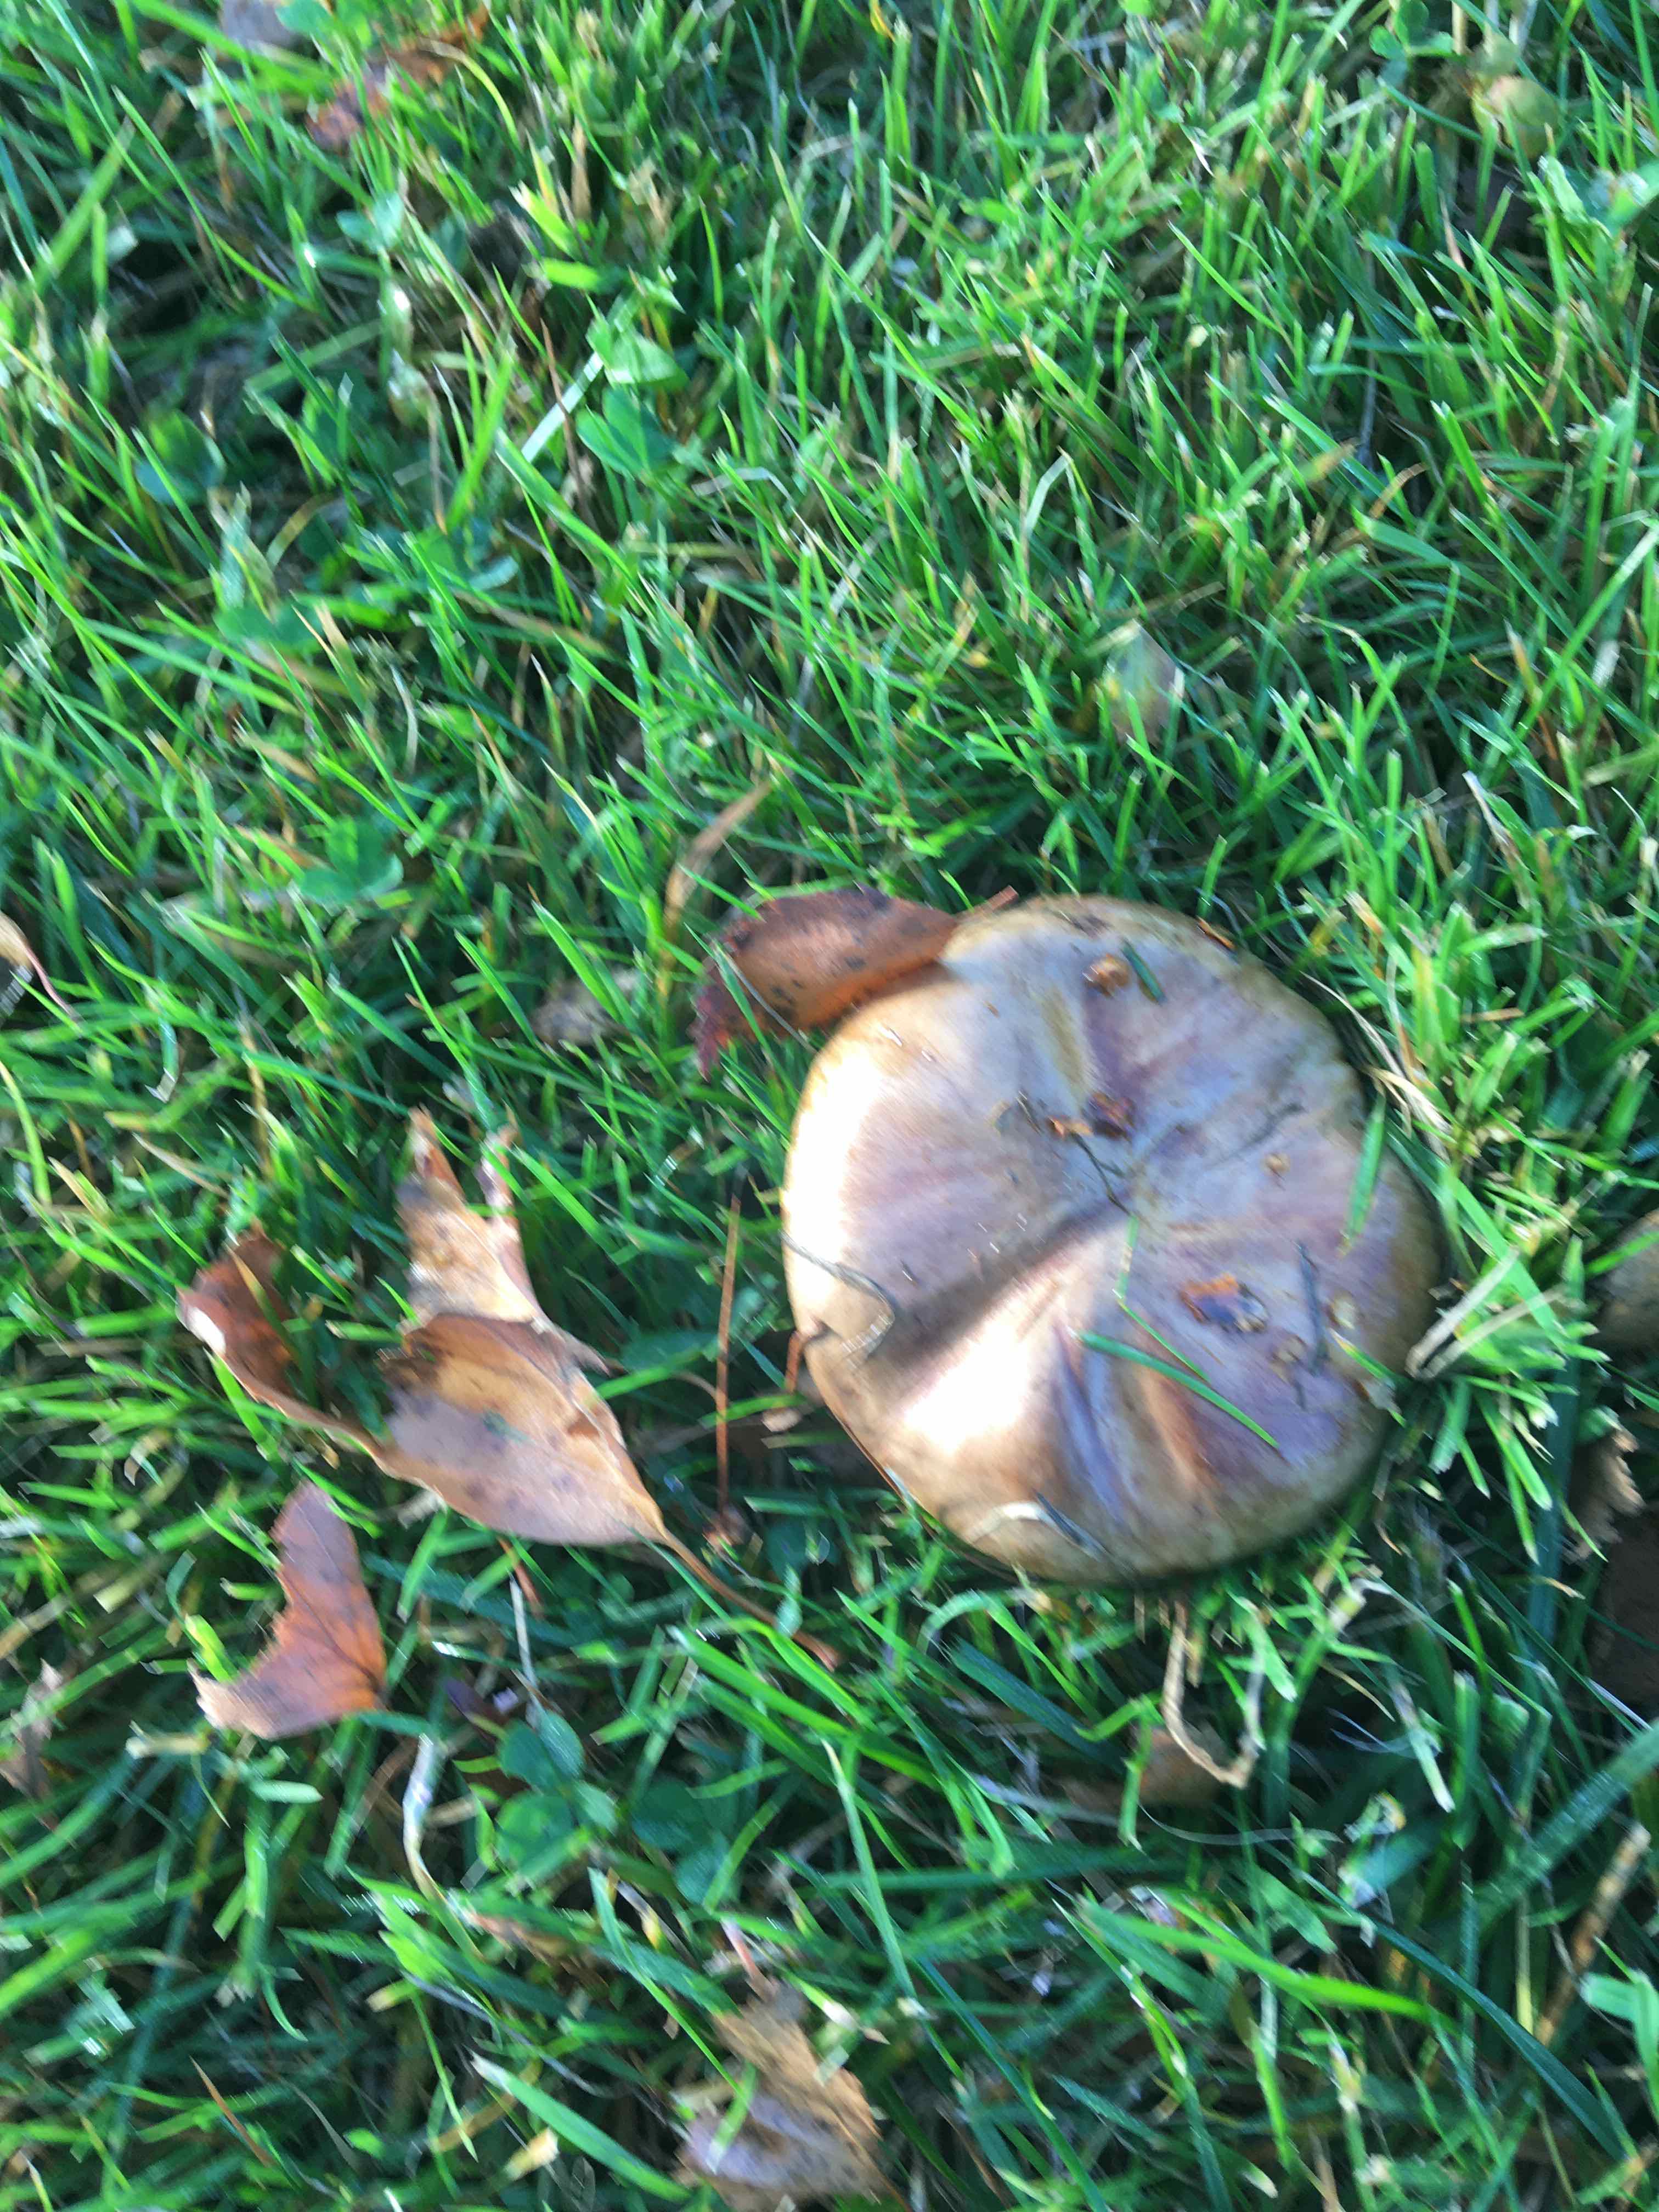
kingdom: Fungi
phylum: Basidiomycota
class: Agaricomycetes
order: Boletales
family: Paxillaceae
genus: Paxillus
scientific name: Paxillus
